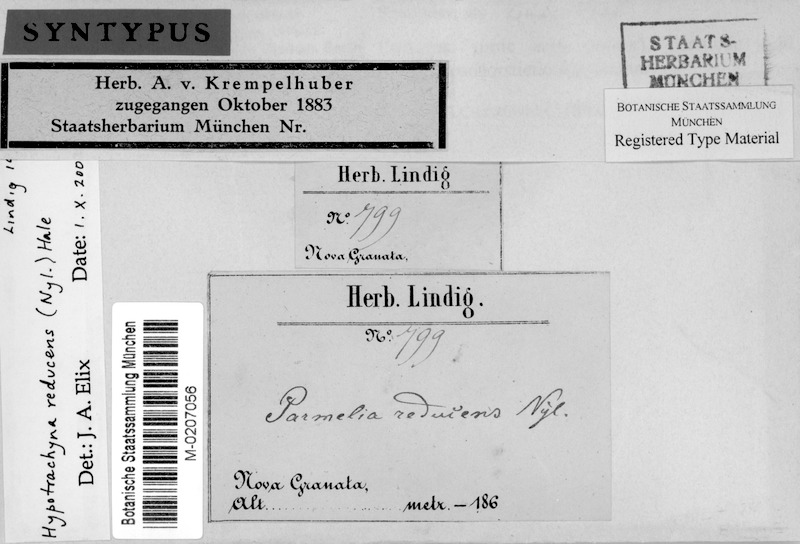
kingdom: Fungi
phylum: Ascomycota
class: Lecanoromycetes
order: Lecanorales
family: Parmeliaceae
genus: Hypotrachyna
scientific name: Hypotrachyna reducens
